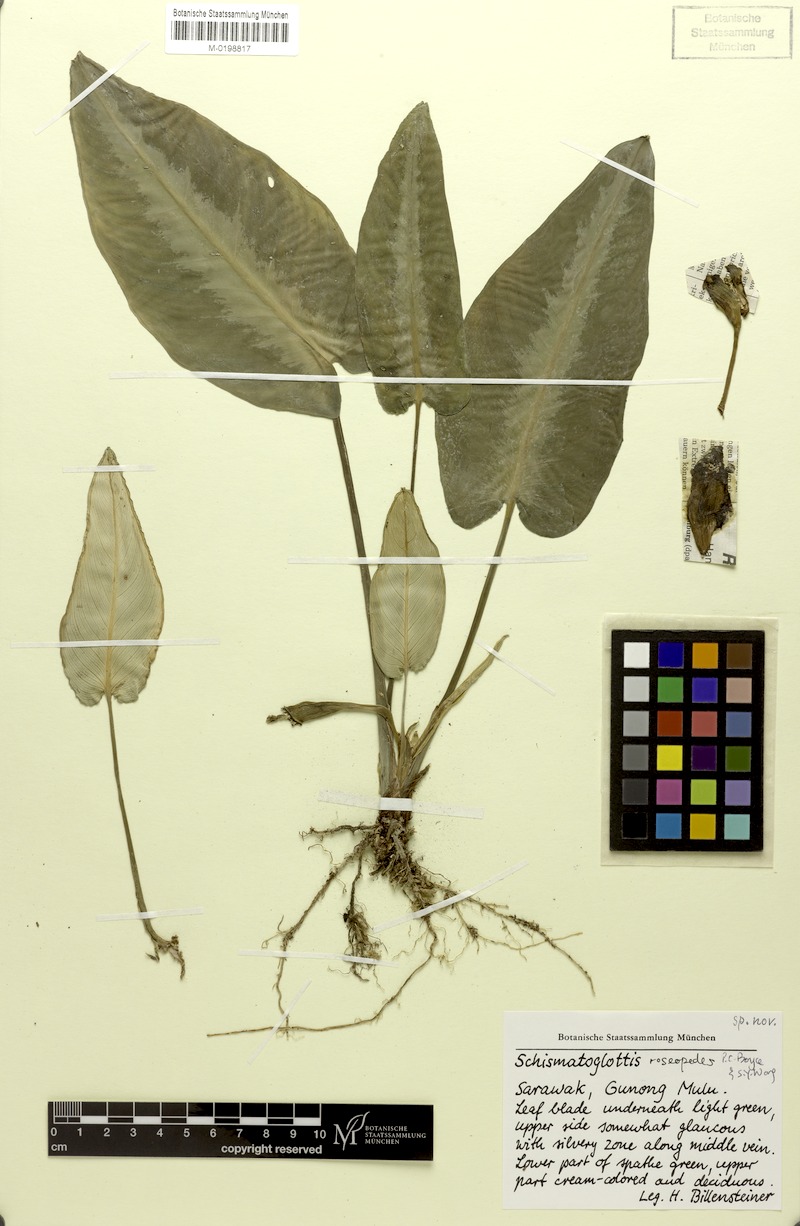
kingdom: Plantae
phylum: Tracheophyta
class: Liliopsida
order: Alismatales
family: Araceae
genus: Schismatoglottis
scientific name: Schismatoglottis roseopedes
